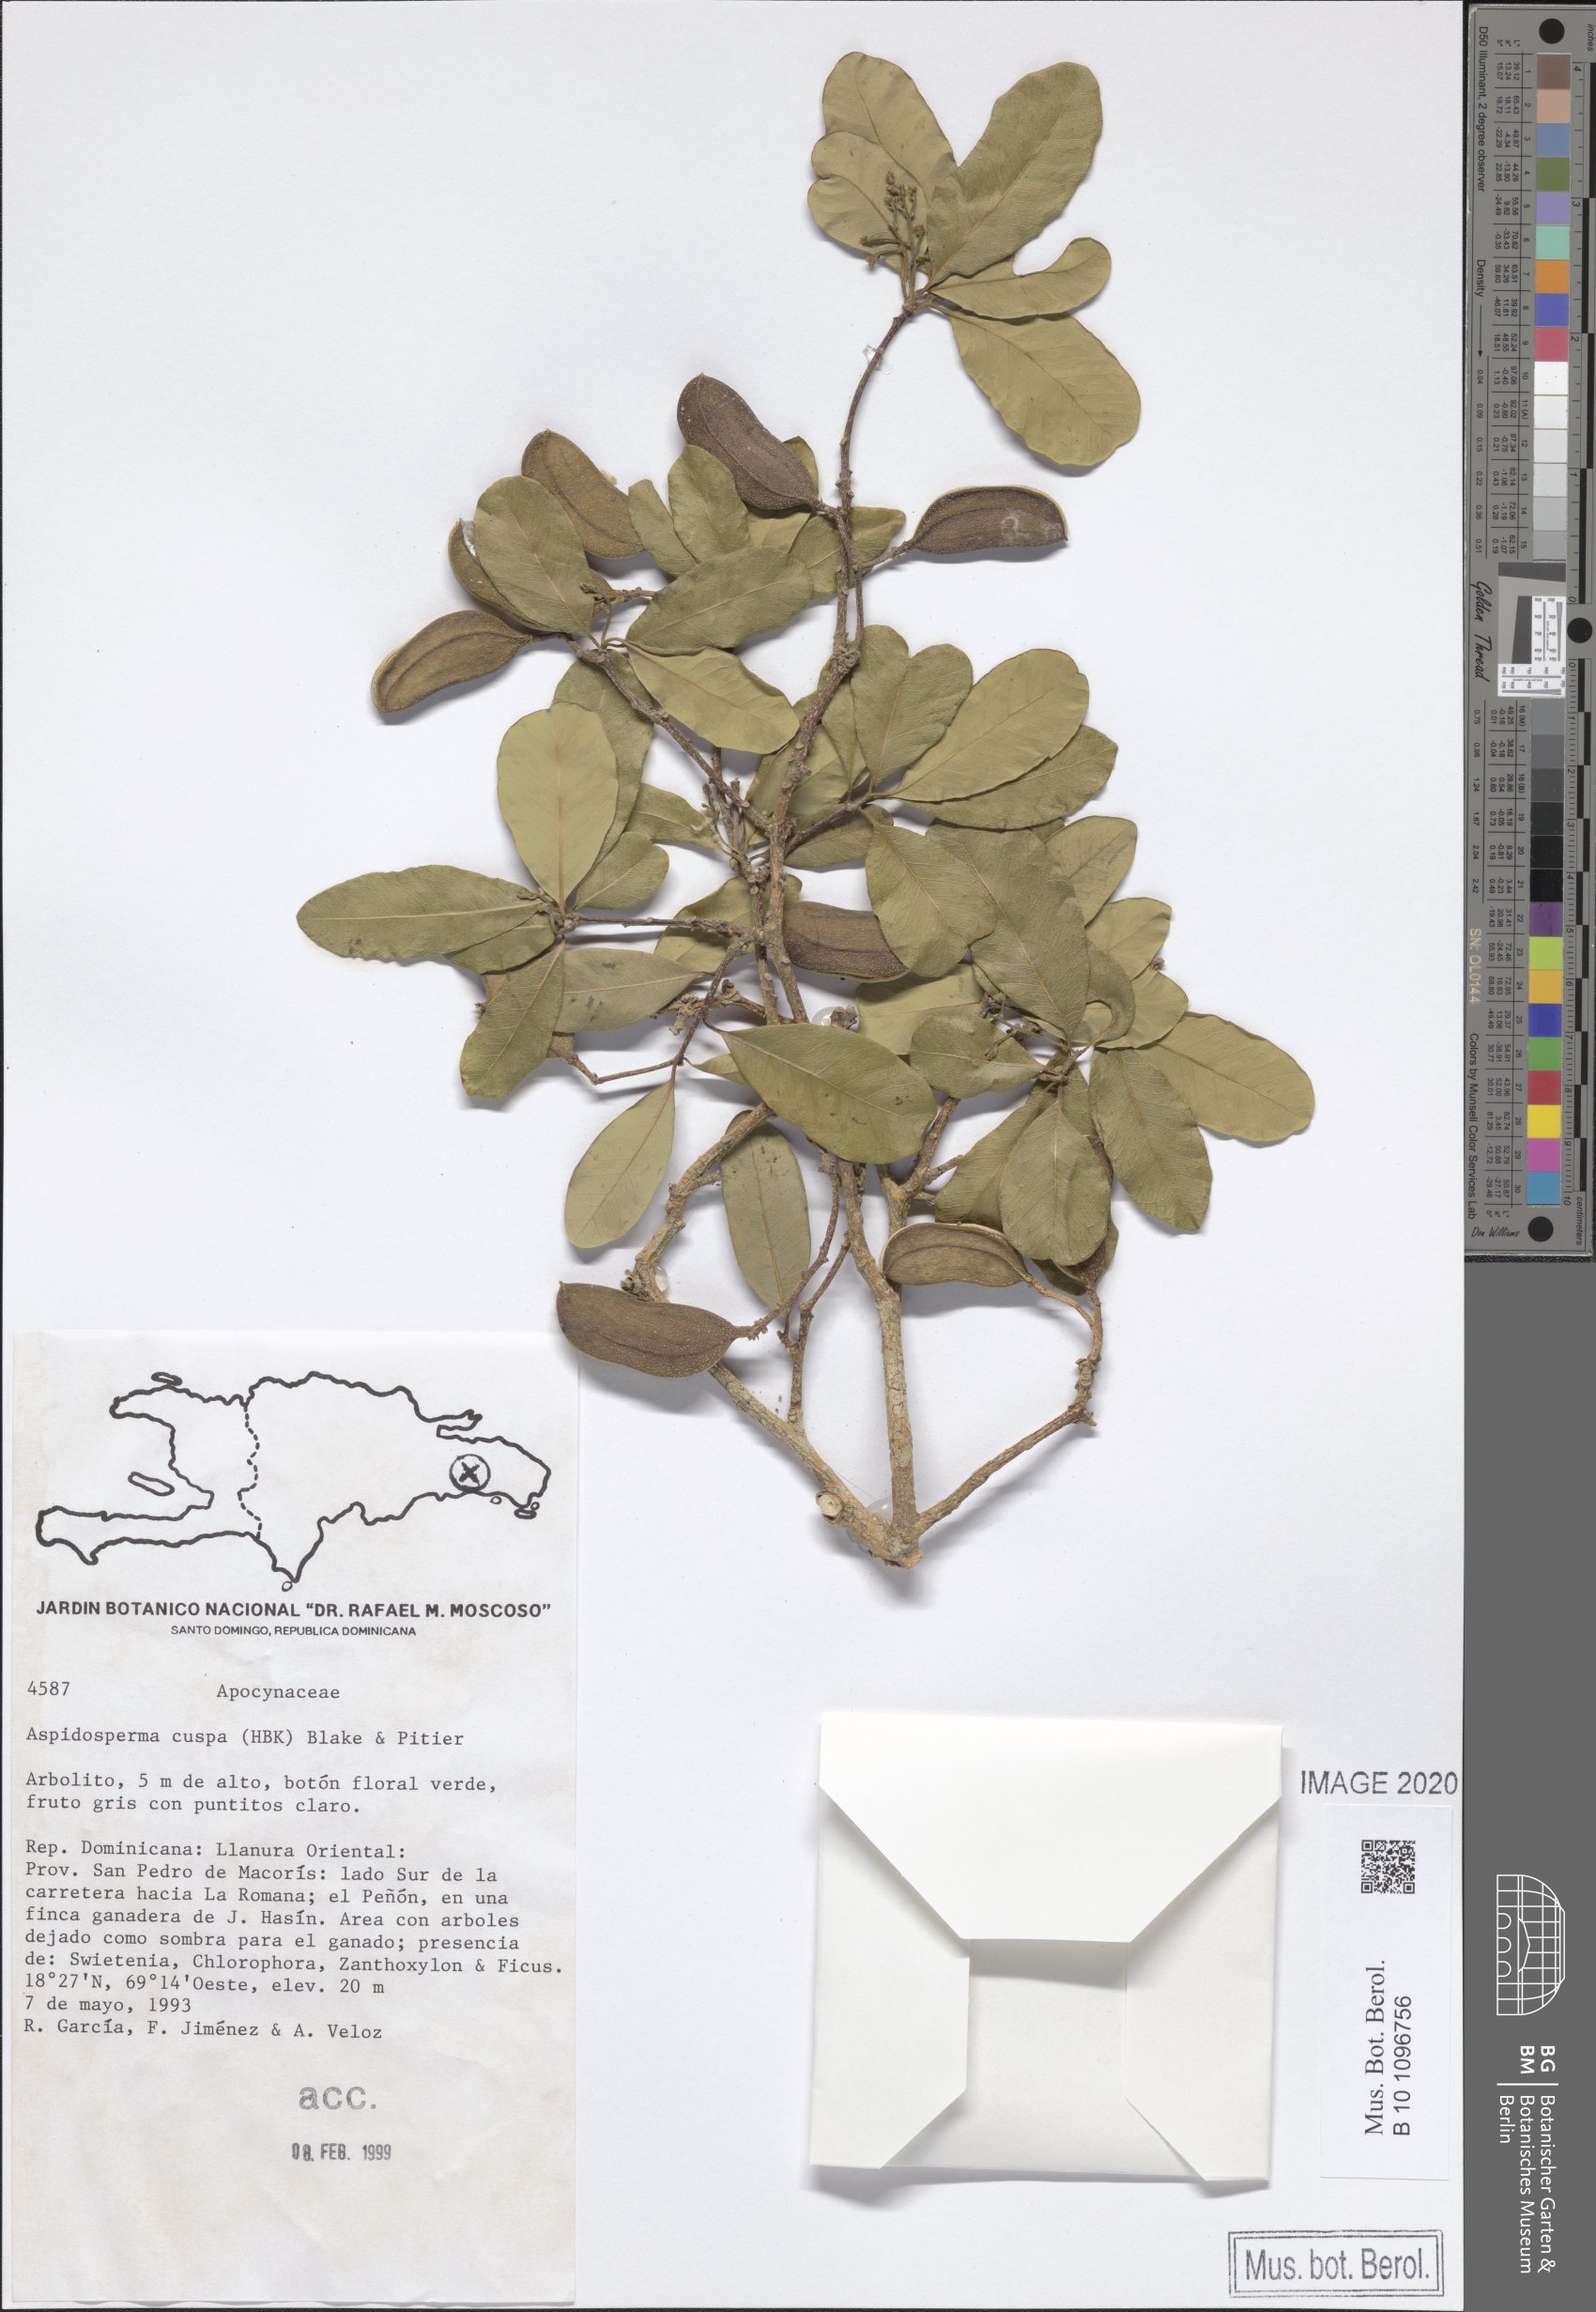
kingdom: Plantae
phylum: Tracheophyta
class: Magnoliopsida
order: Gentianales
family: Apocynaceae
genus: Aspidosperma
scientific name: Aspidosperma cuspa
